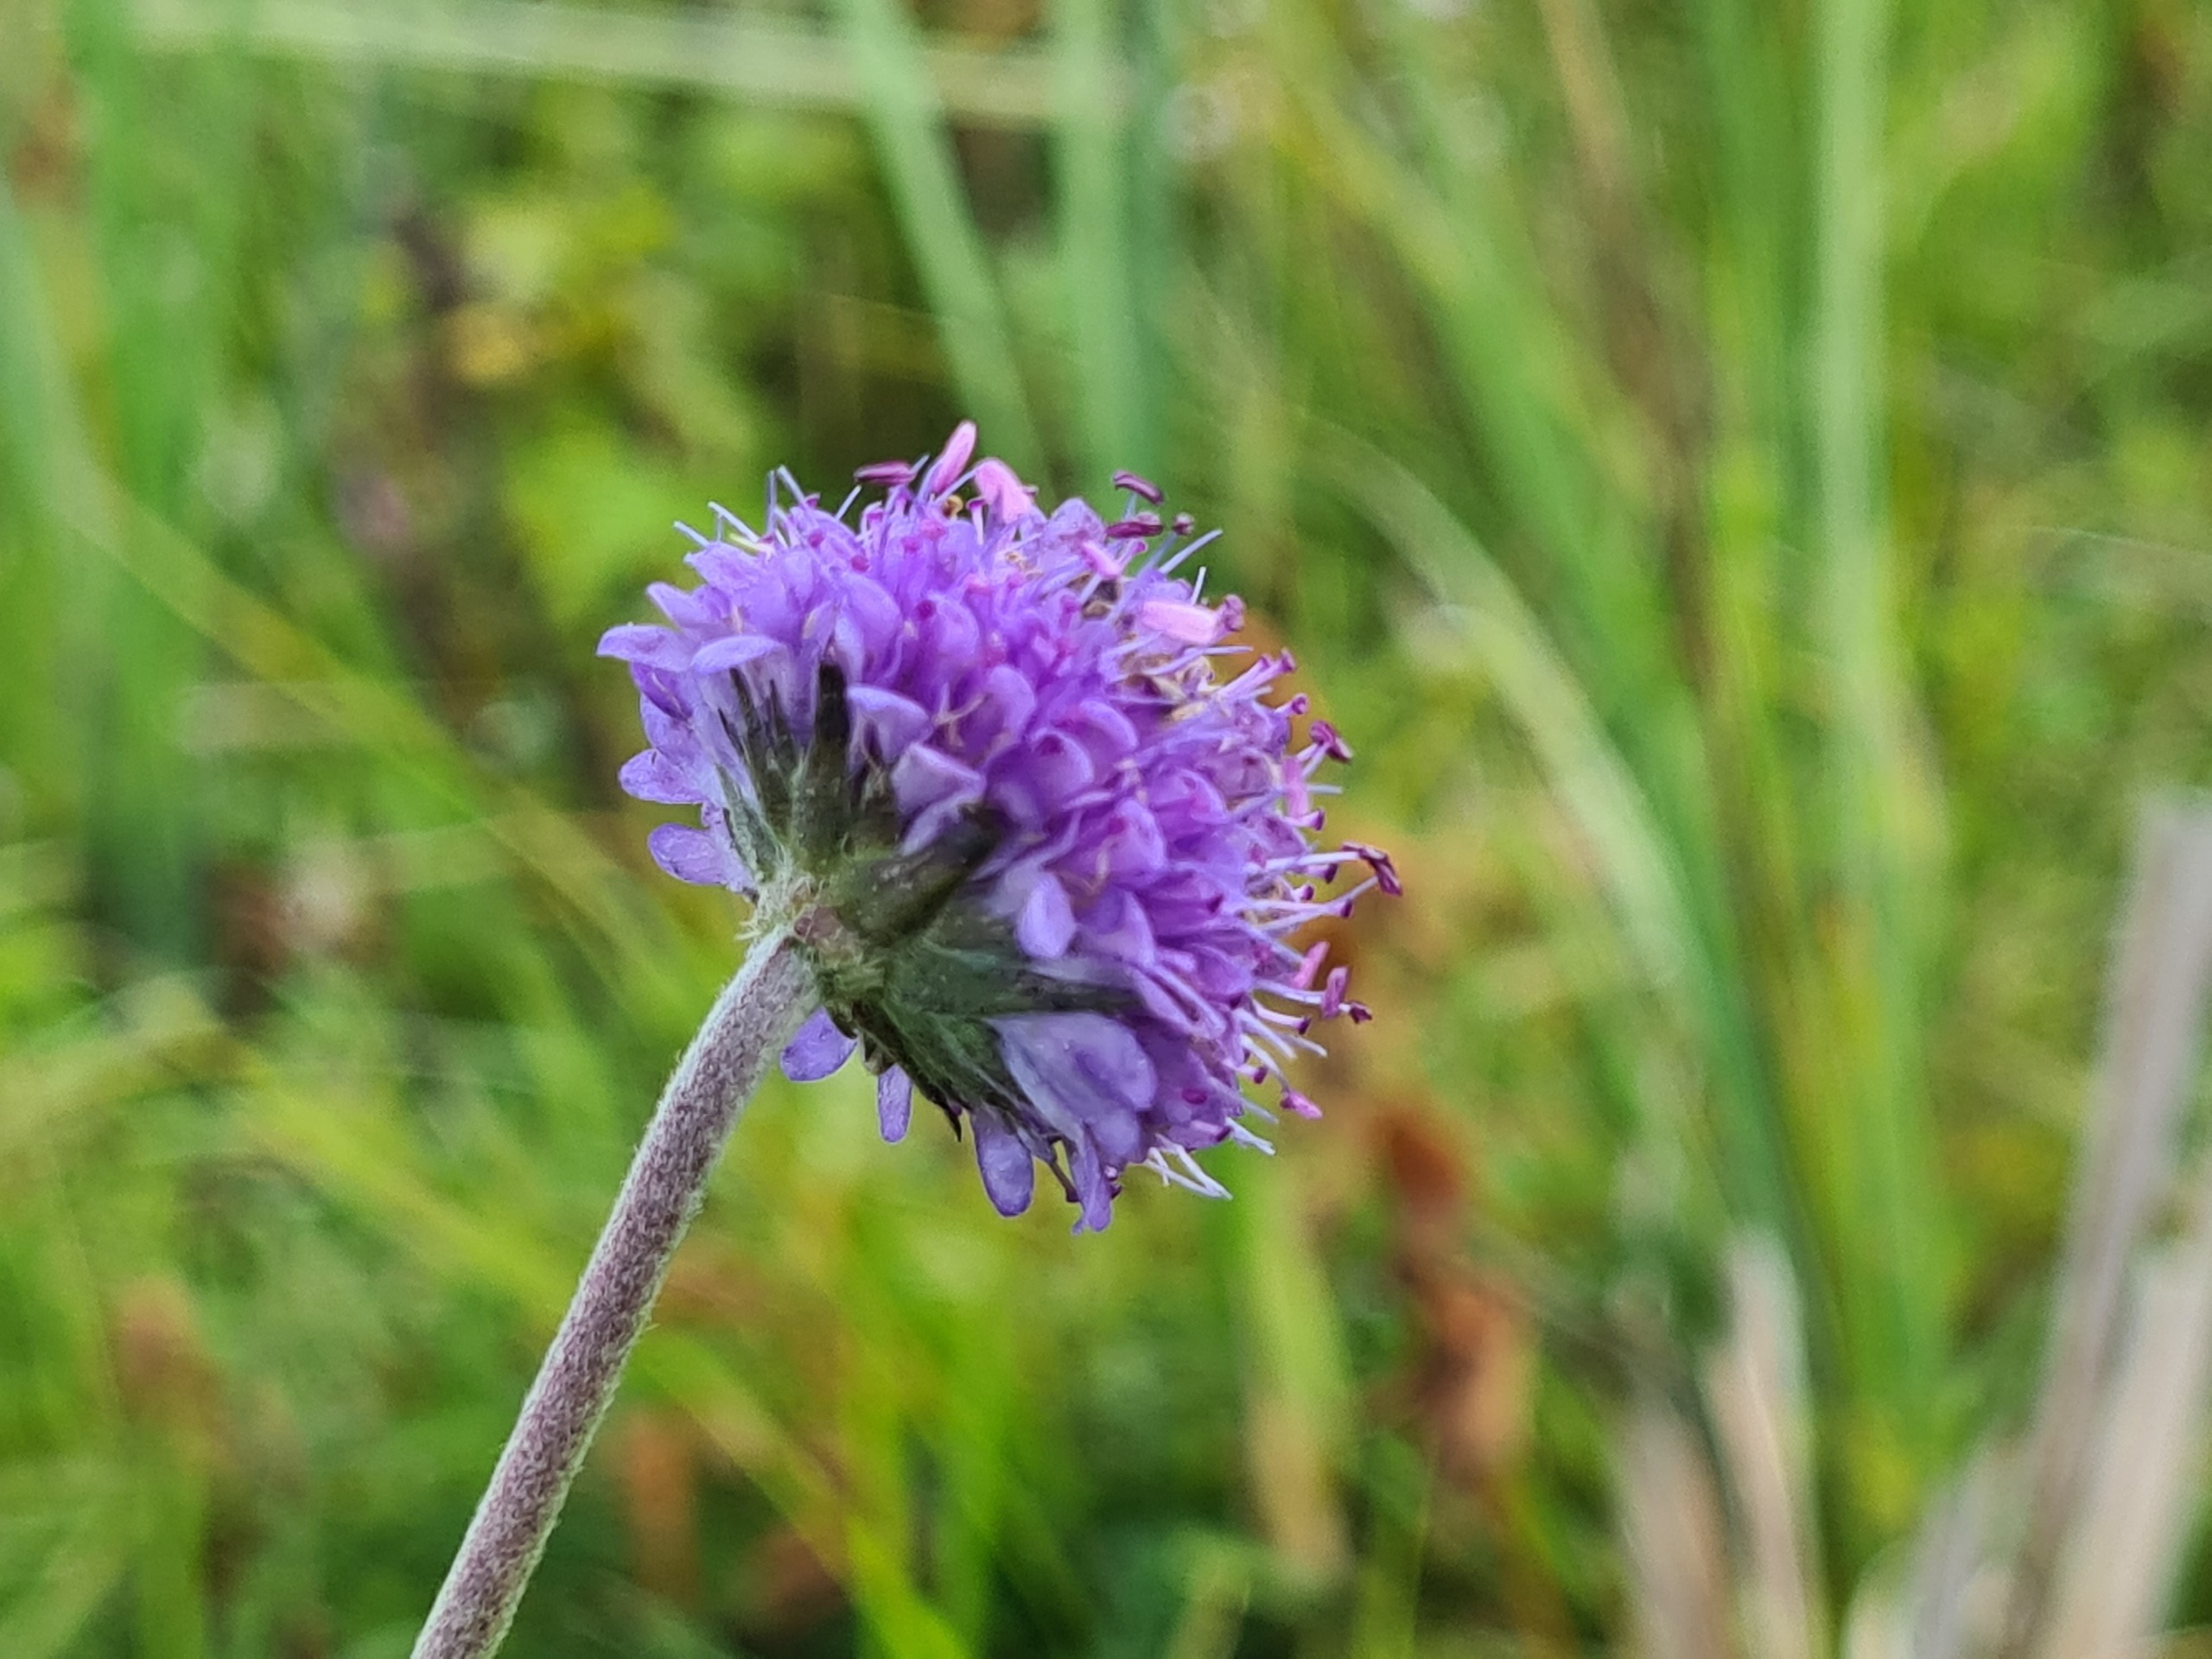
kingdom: Plantae
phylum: Tracheophyta
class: Magnoliopsida
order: Dipsacales
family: Caprifoliaceae
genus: Succisa
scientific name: Succisa pratensis
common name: Djævelsbid
